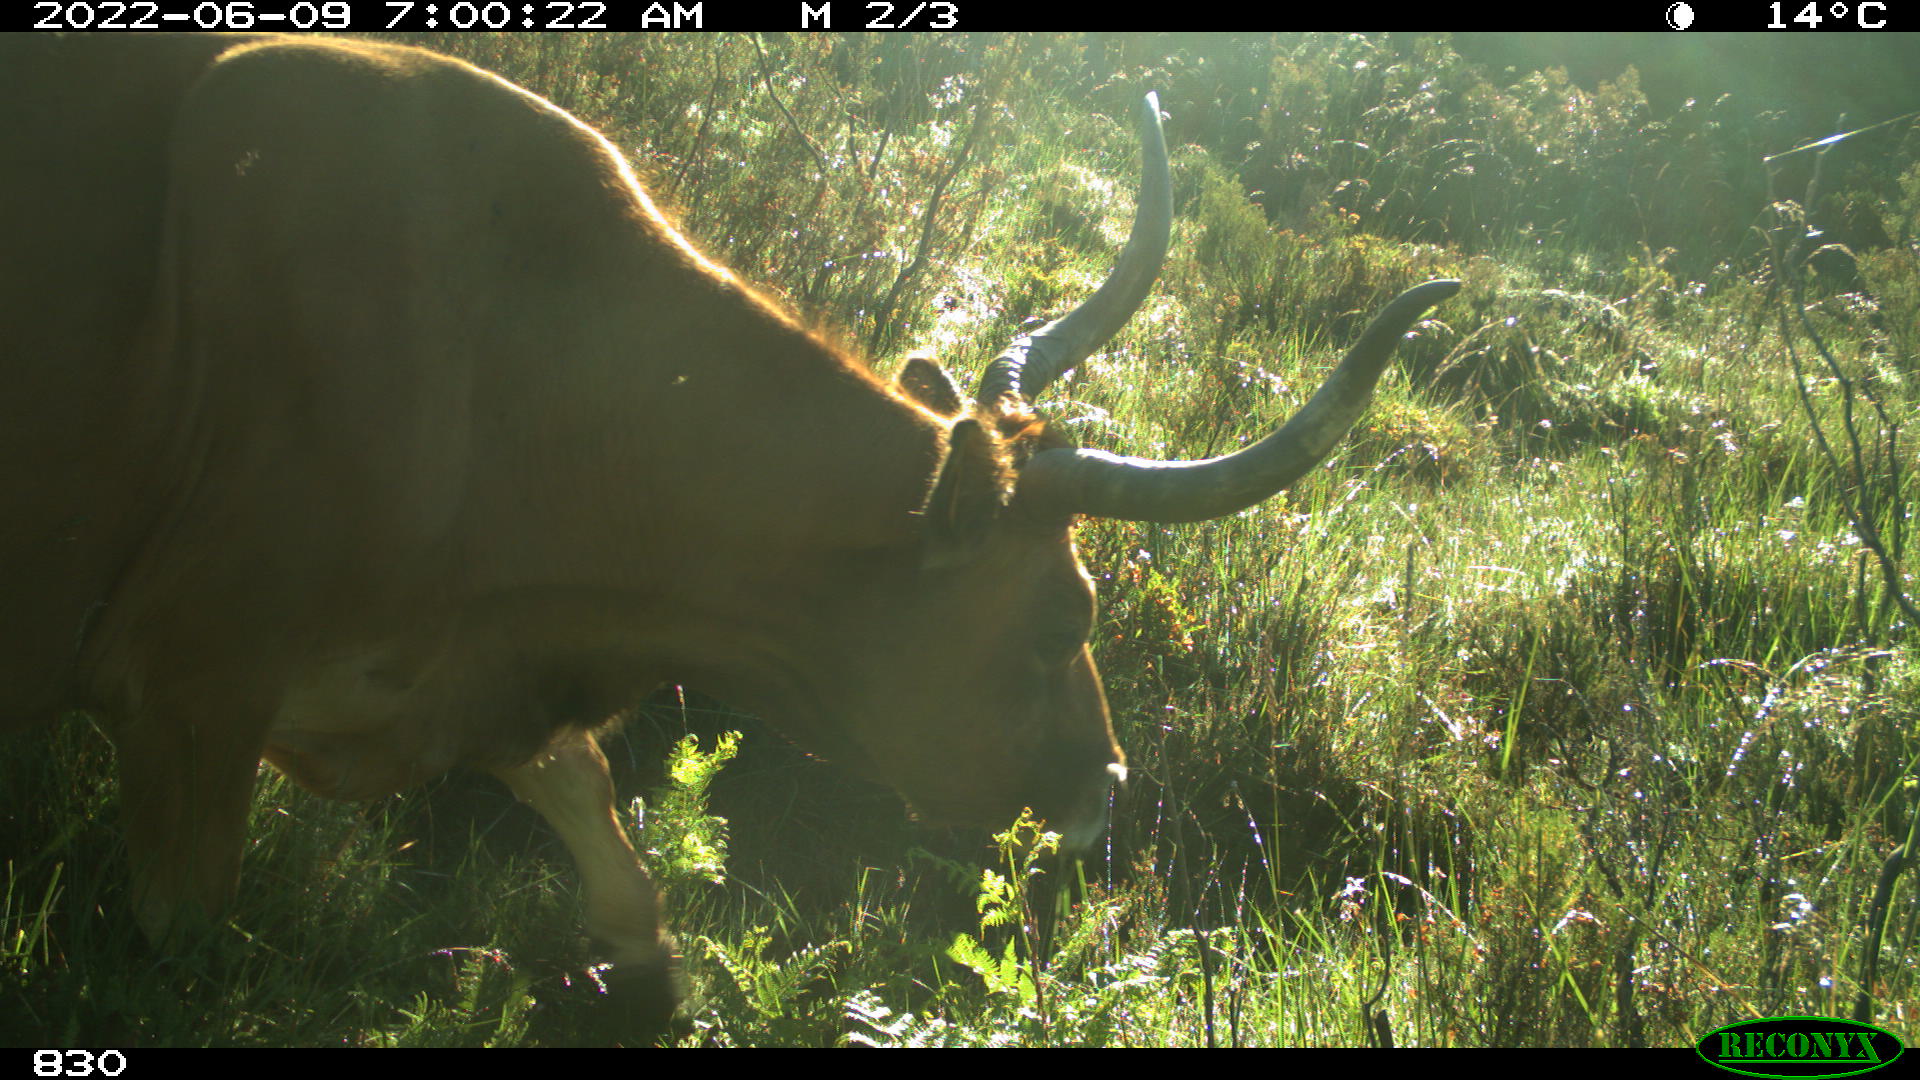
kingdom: Animalia
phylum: Chordata
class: Mammalia
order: Artiodactyla
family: Bovidae
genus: Bos
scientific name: Bos taurus
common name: Domesticated cattle
